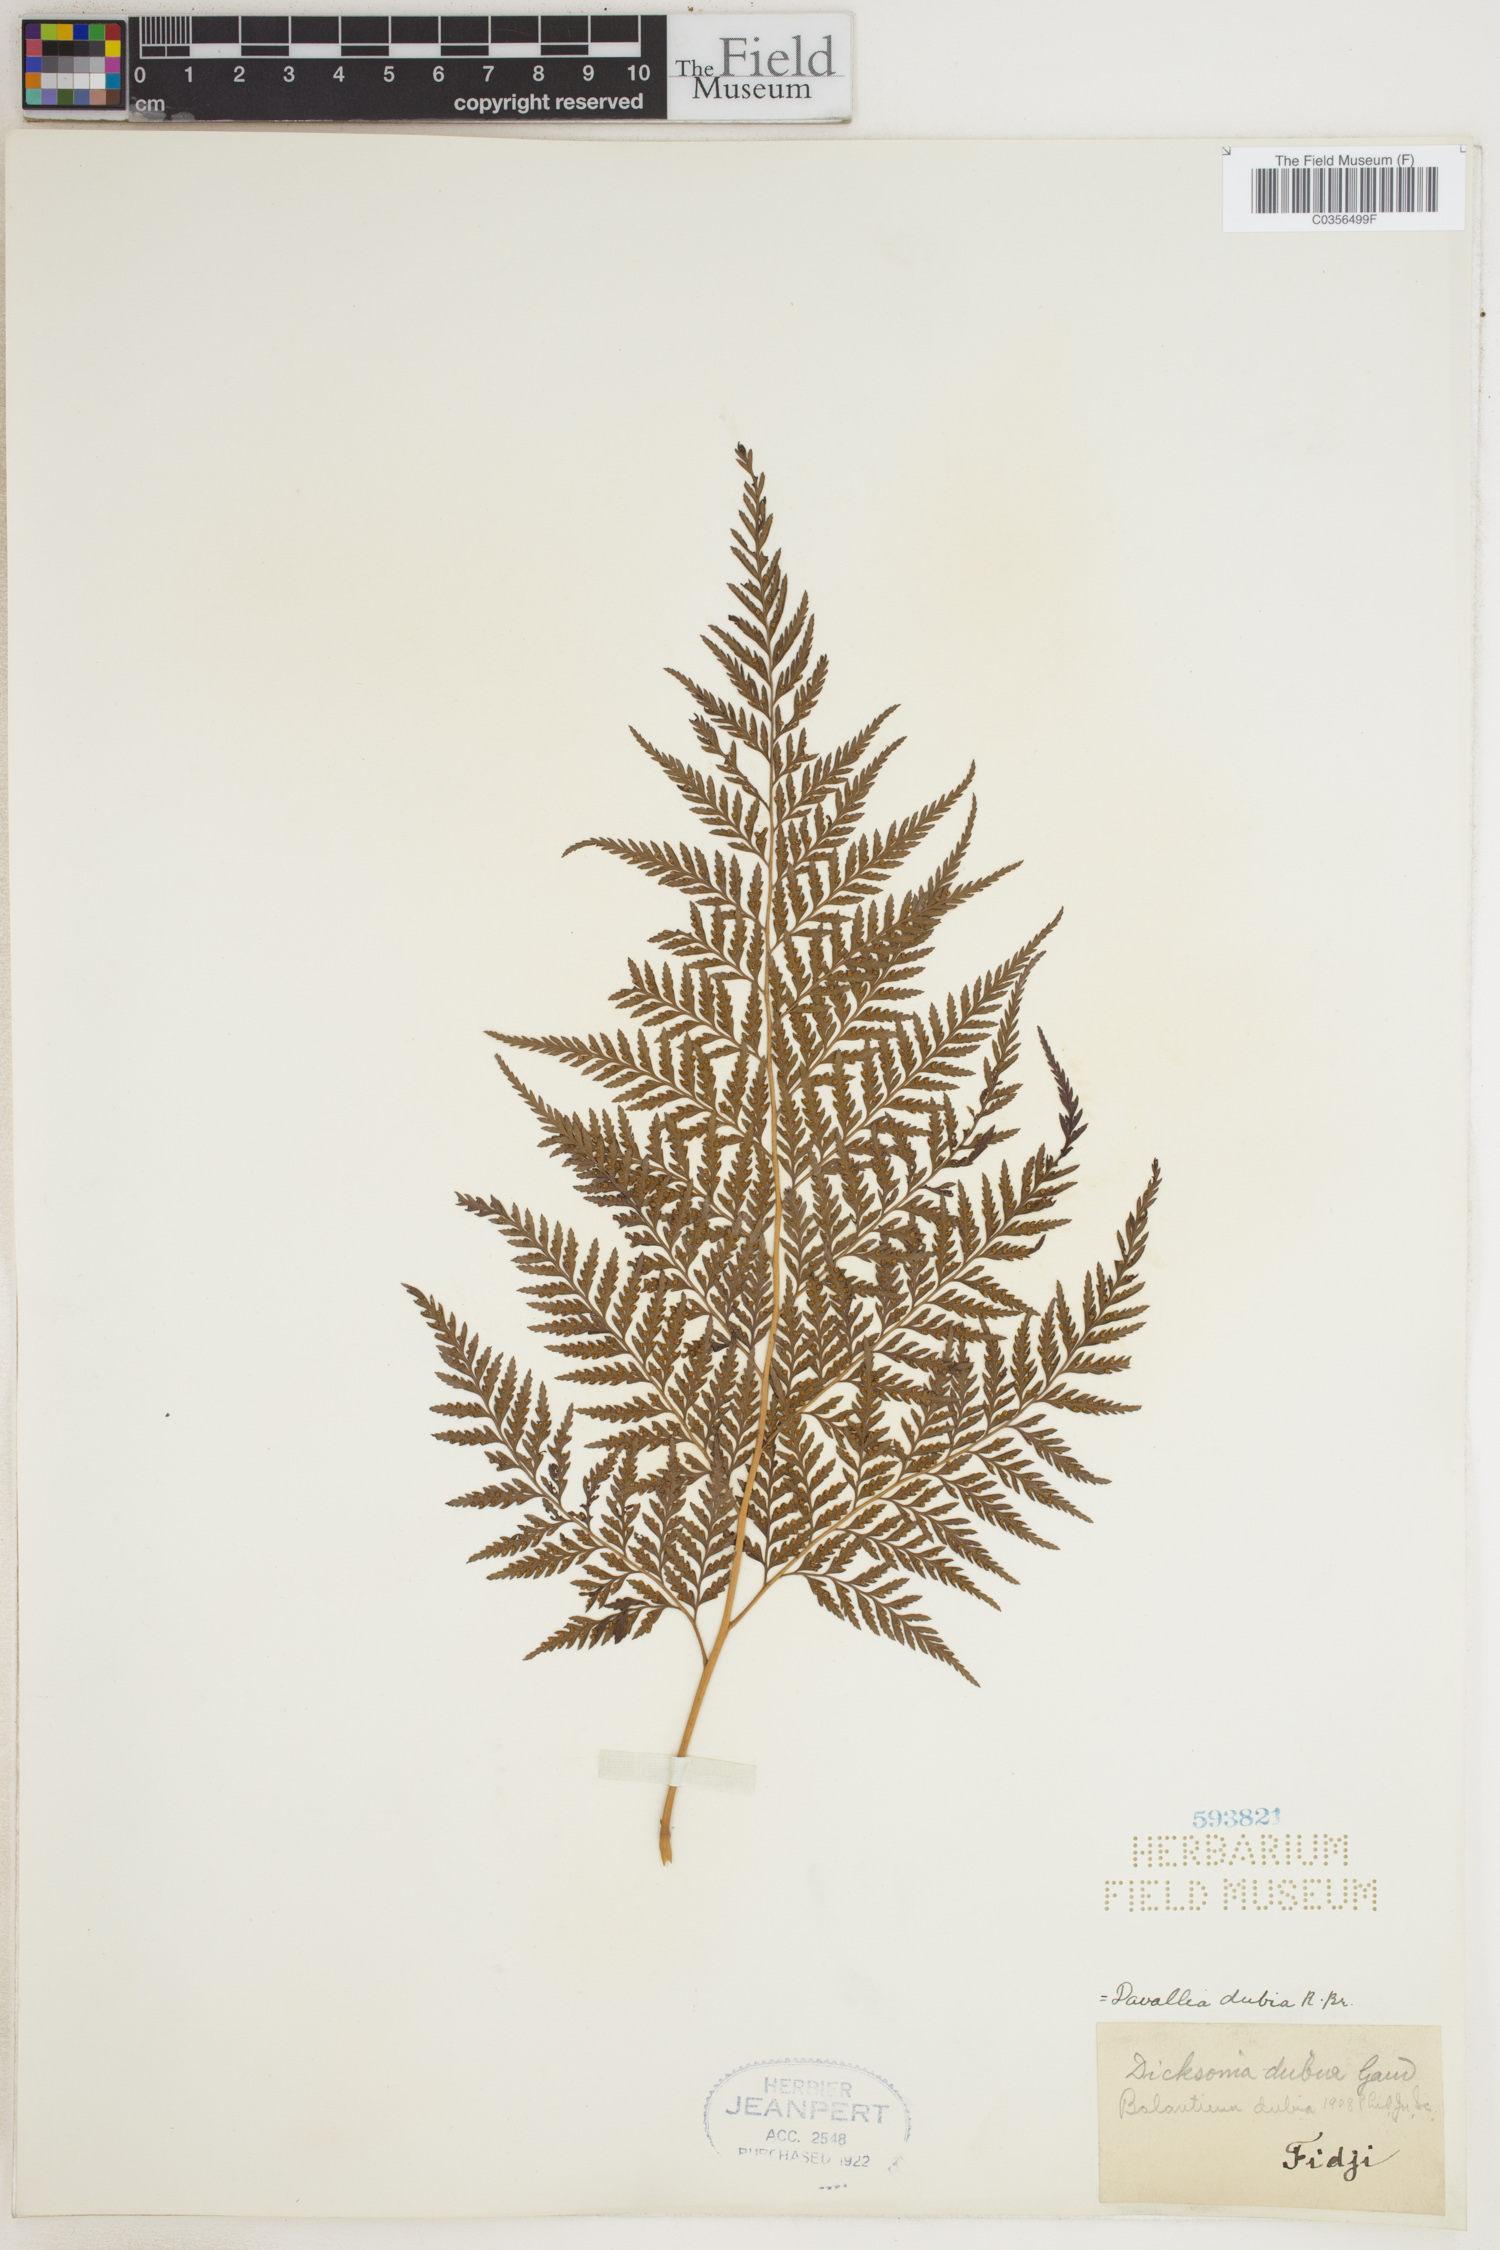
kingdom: Plantae
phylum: Tracheophyta
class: Polypodiopsida
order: Polypodiales
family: Davalliaceae
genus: Davallia
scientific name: Davallia dubia
